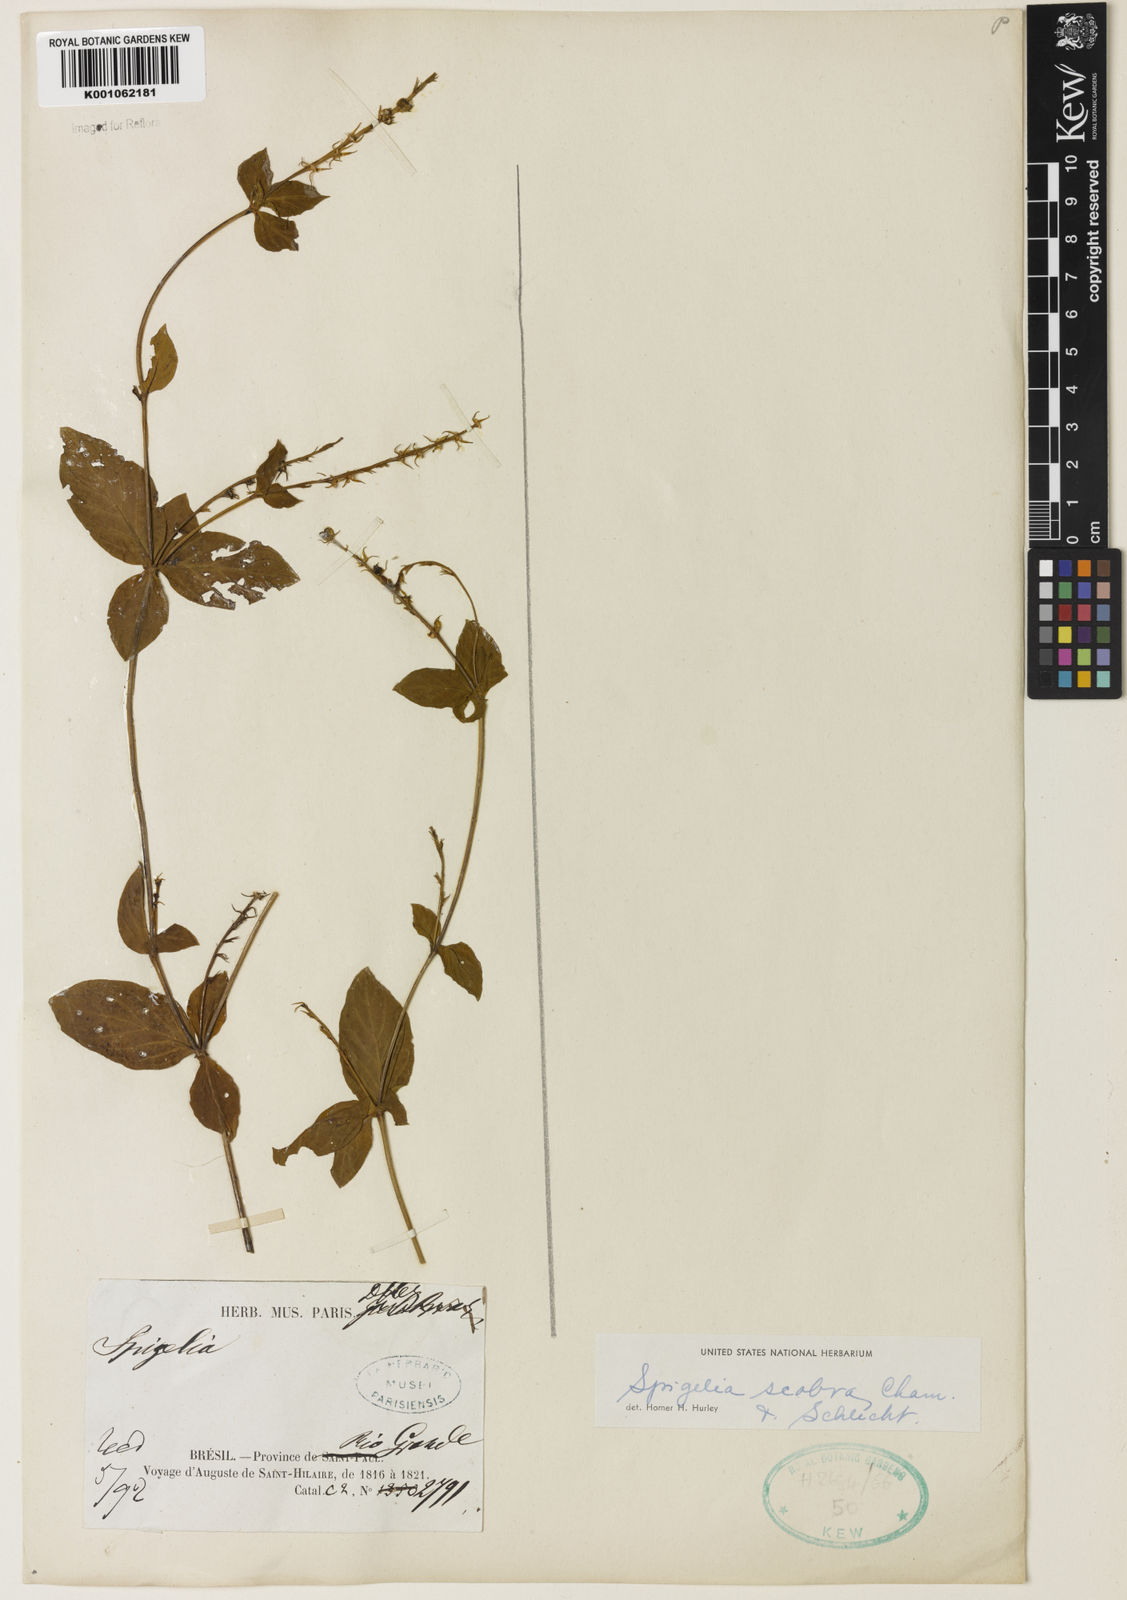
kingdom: Plantae
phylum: Tracheophyta
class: Magnoliopsida
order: Gentianales
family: Loganiaceae
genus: Spigelia
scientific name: Spigelia humboldtiana
